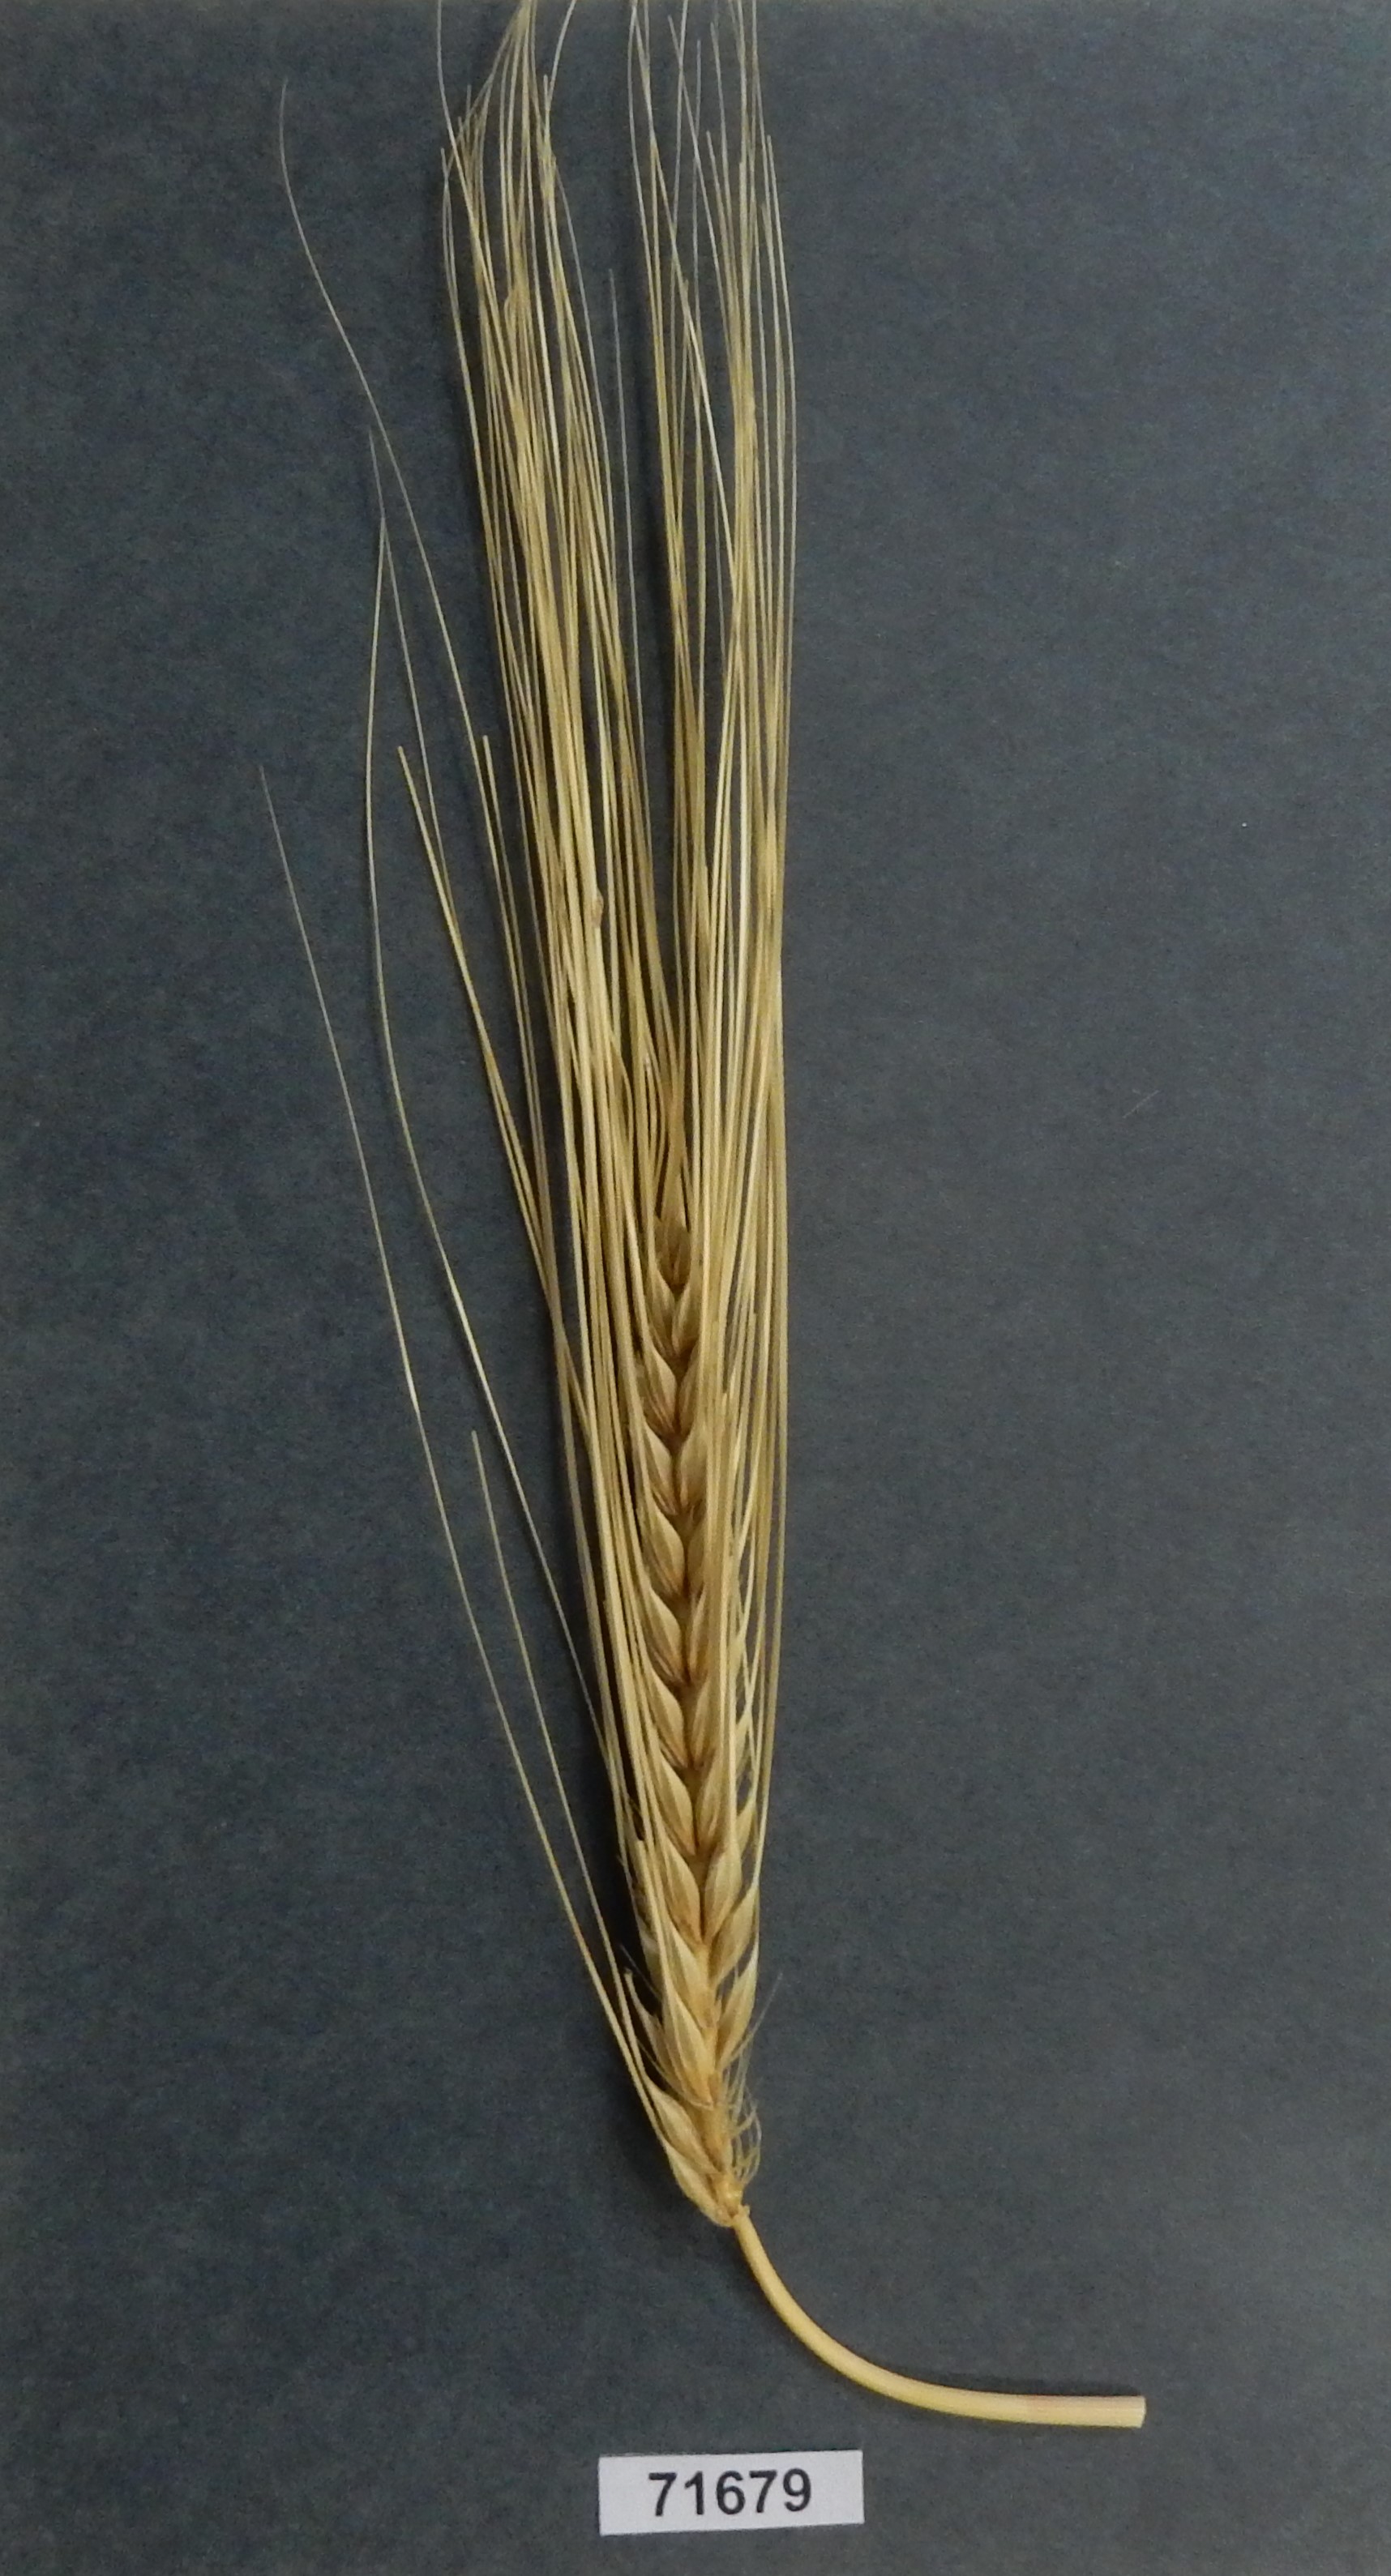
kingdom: Plantae
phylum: Tracheophyta
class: Liliopsida
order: Poales
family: Poaceae
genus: Hordeum
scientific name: Hordeum vulgare
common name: Barley
